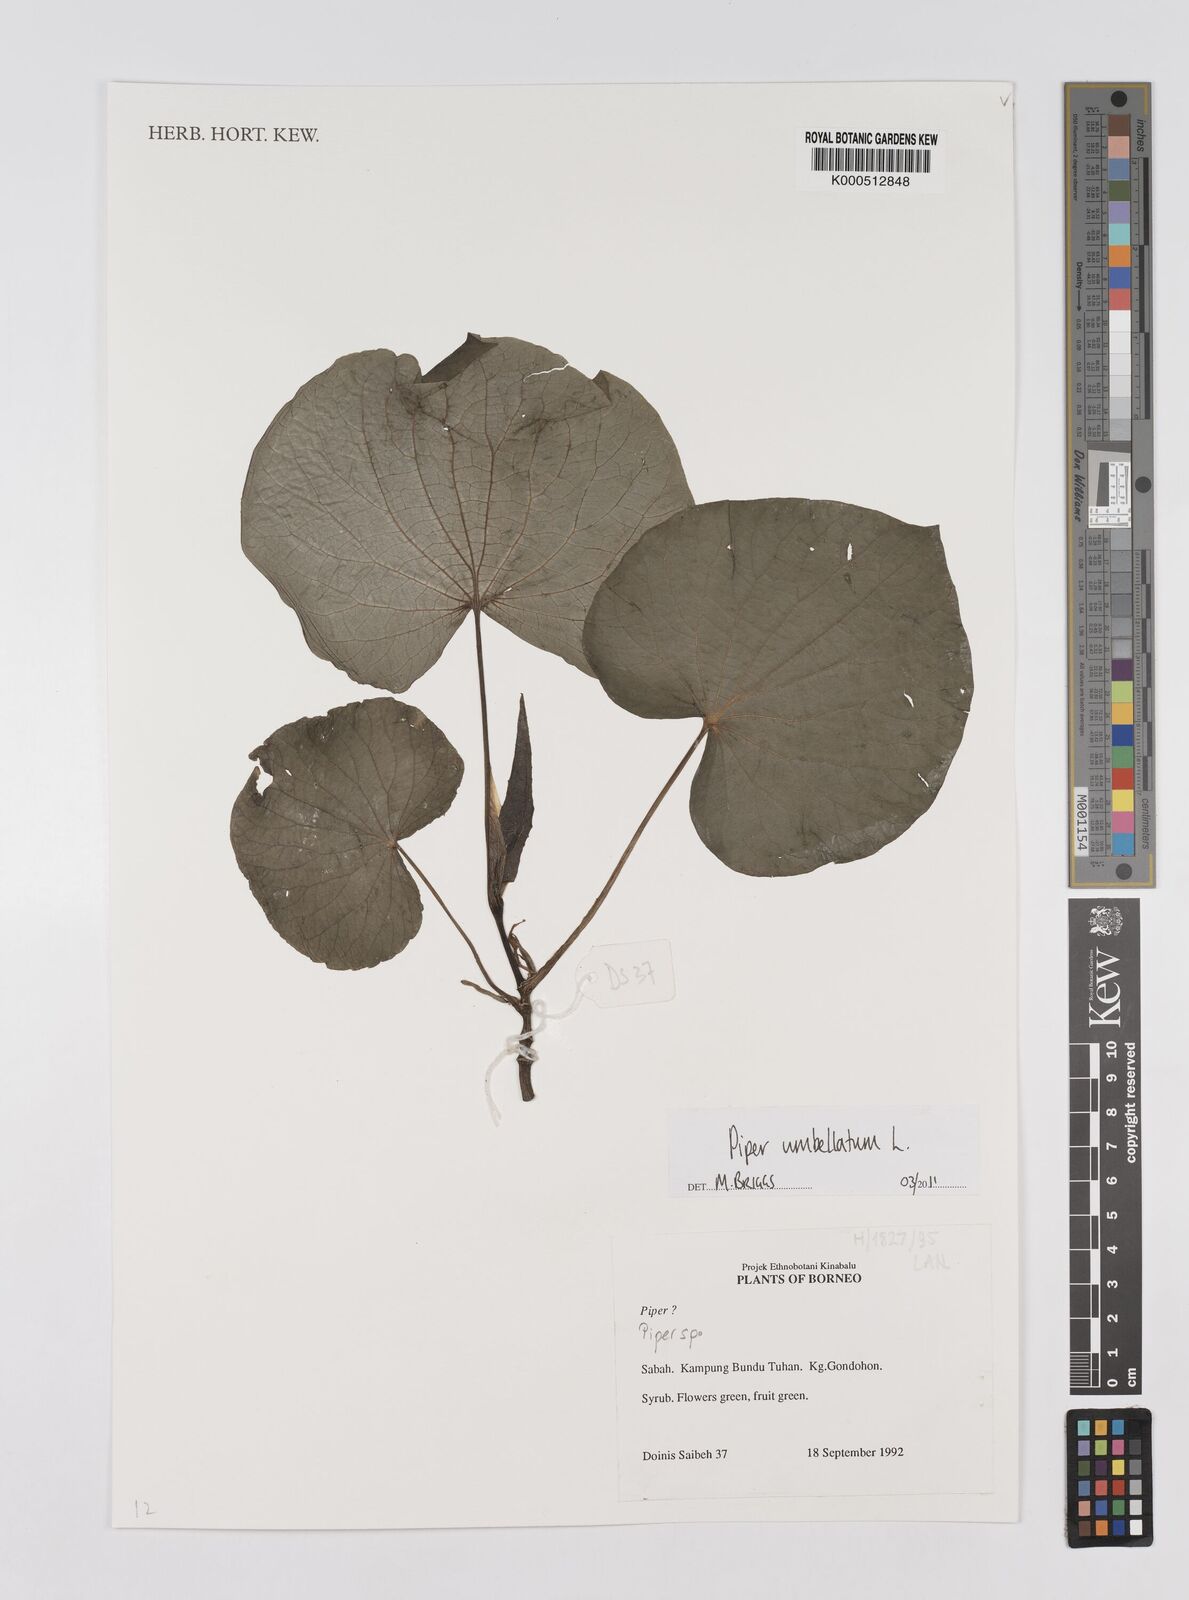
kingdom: Plantae
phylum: Tracheophyta
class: Magnoliopsida
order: Piperales
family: Piperaceae
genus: Piper
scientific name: Piper
